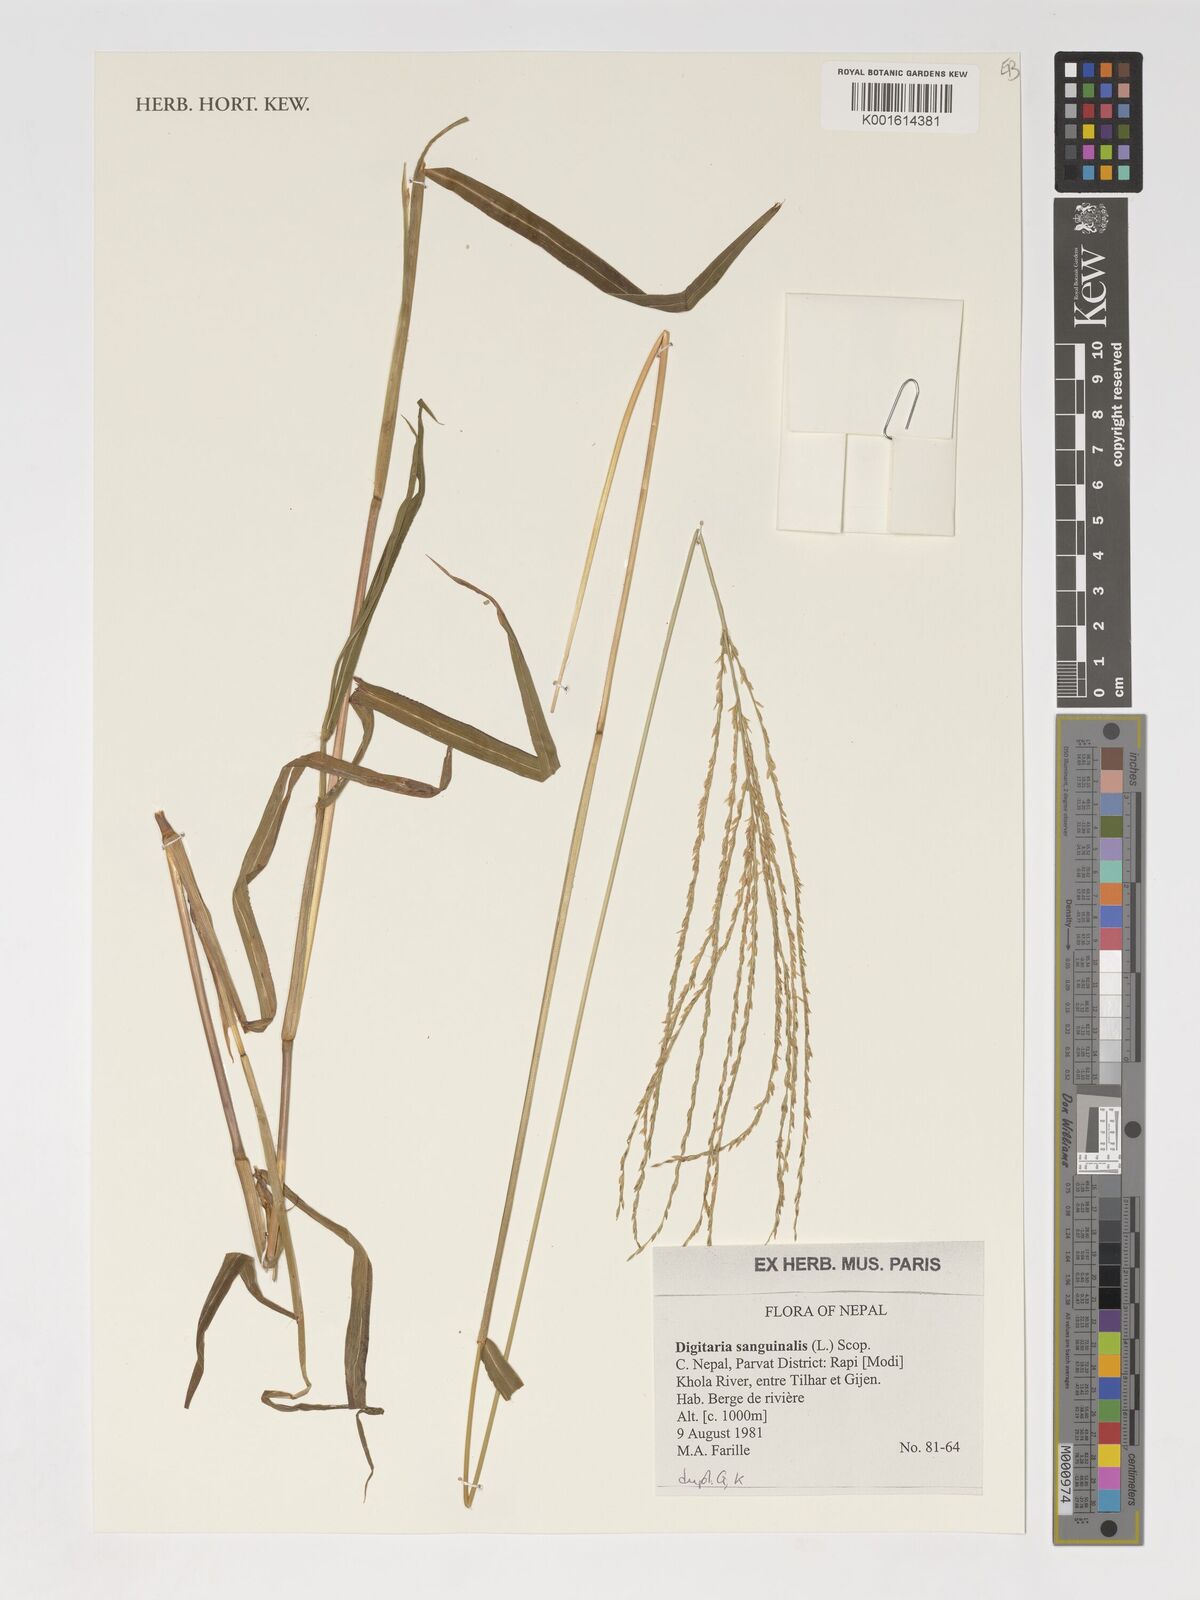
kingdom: Plantae
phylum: Tracheophyta
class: Liliopsida
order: Poales
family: Poaceae
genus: Digitaria
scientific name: Digitaria sanguinalis
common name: Hairy crabgrass
